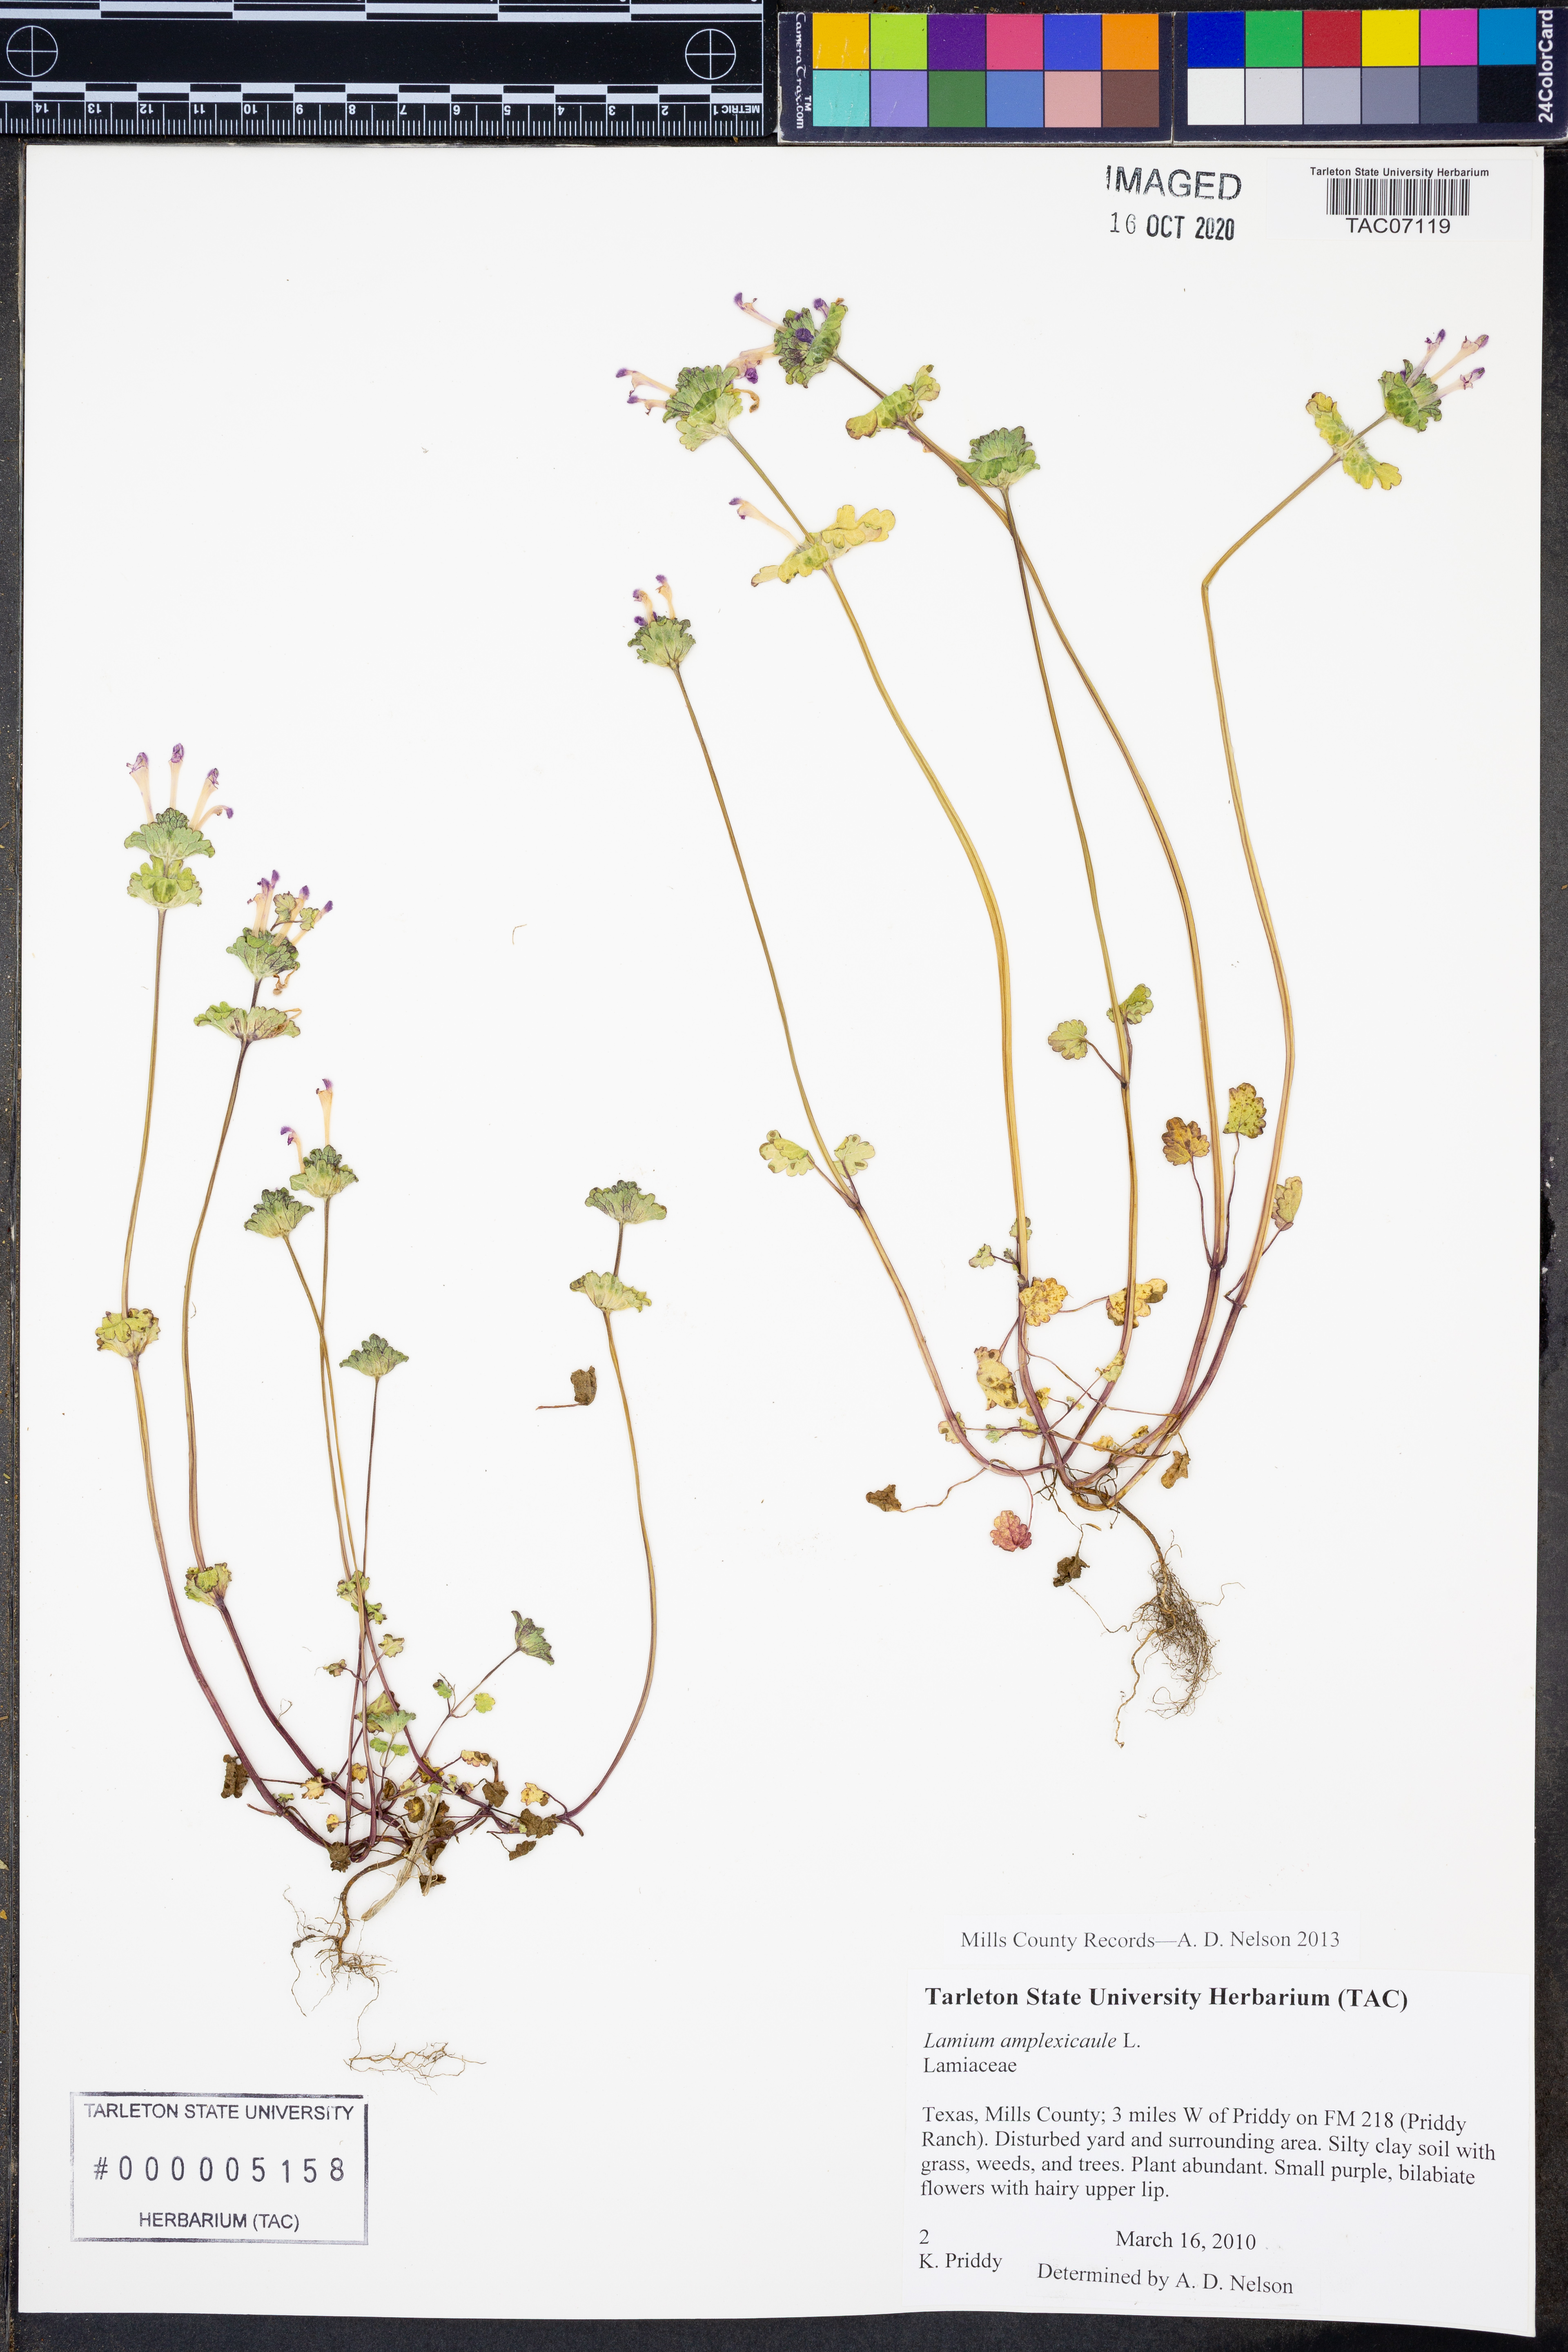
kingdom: Plantae
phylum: Tracheophyta
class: Magnoliopsida
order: Lamiales
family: Lamiaceae
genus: Lamium
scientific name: Lamium amplexicaule
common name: Henbit dead-nettle
